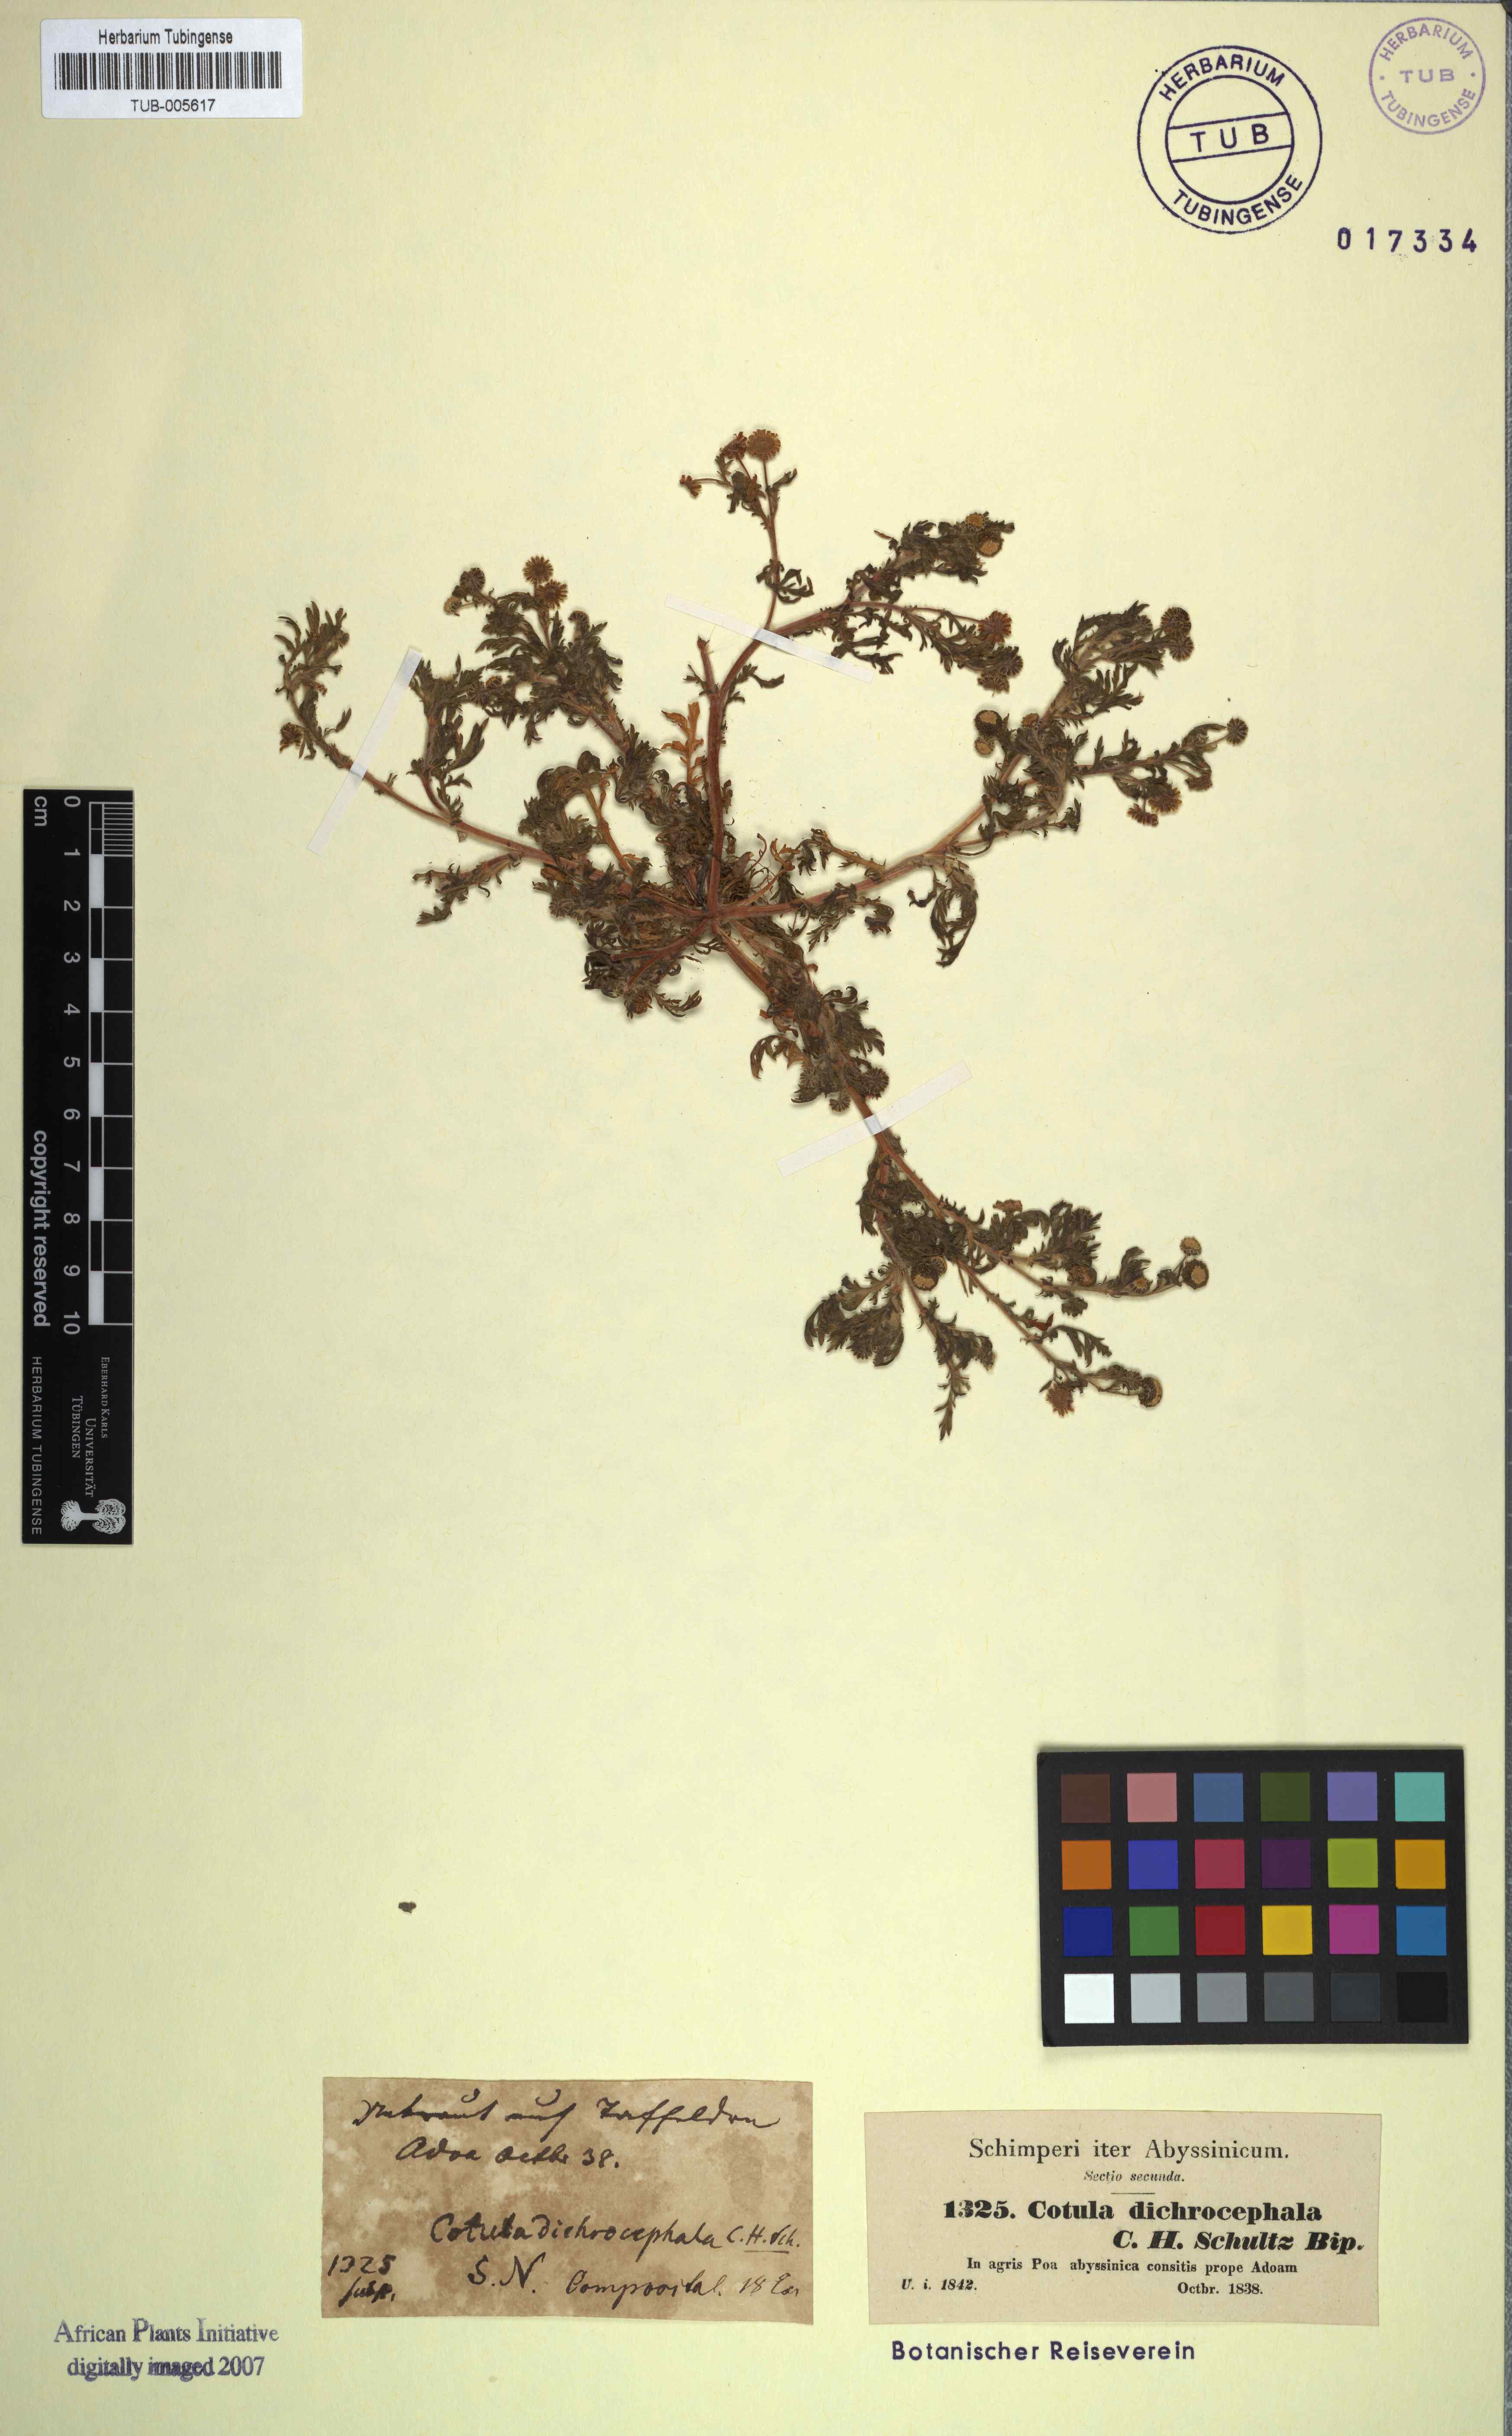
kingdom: Plantae
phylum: Tracheophyta
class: Magnoliopsida
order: Asterales
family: Asteraceae
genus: Cotula
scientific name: Cotula anthemoides
